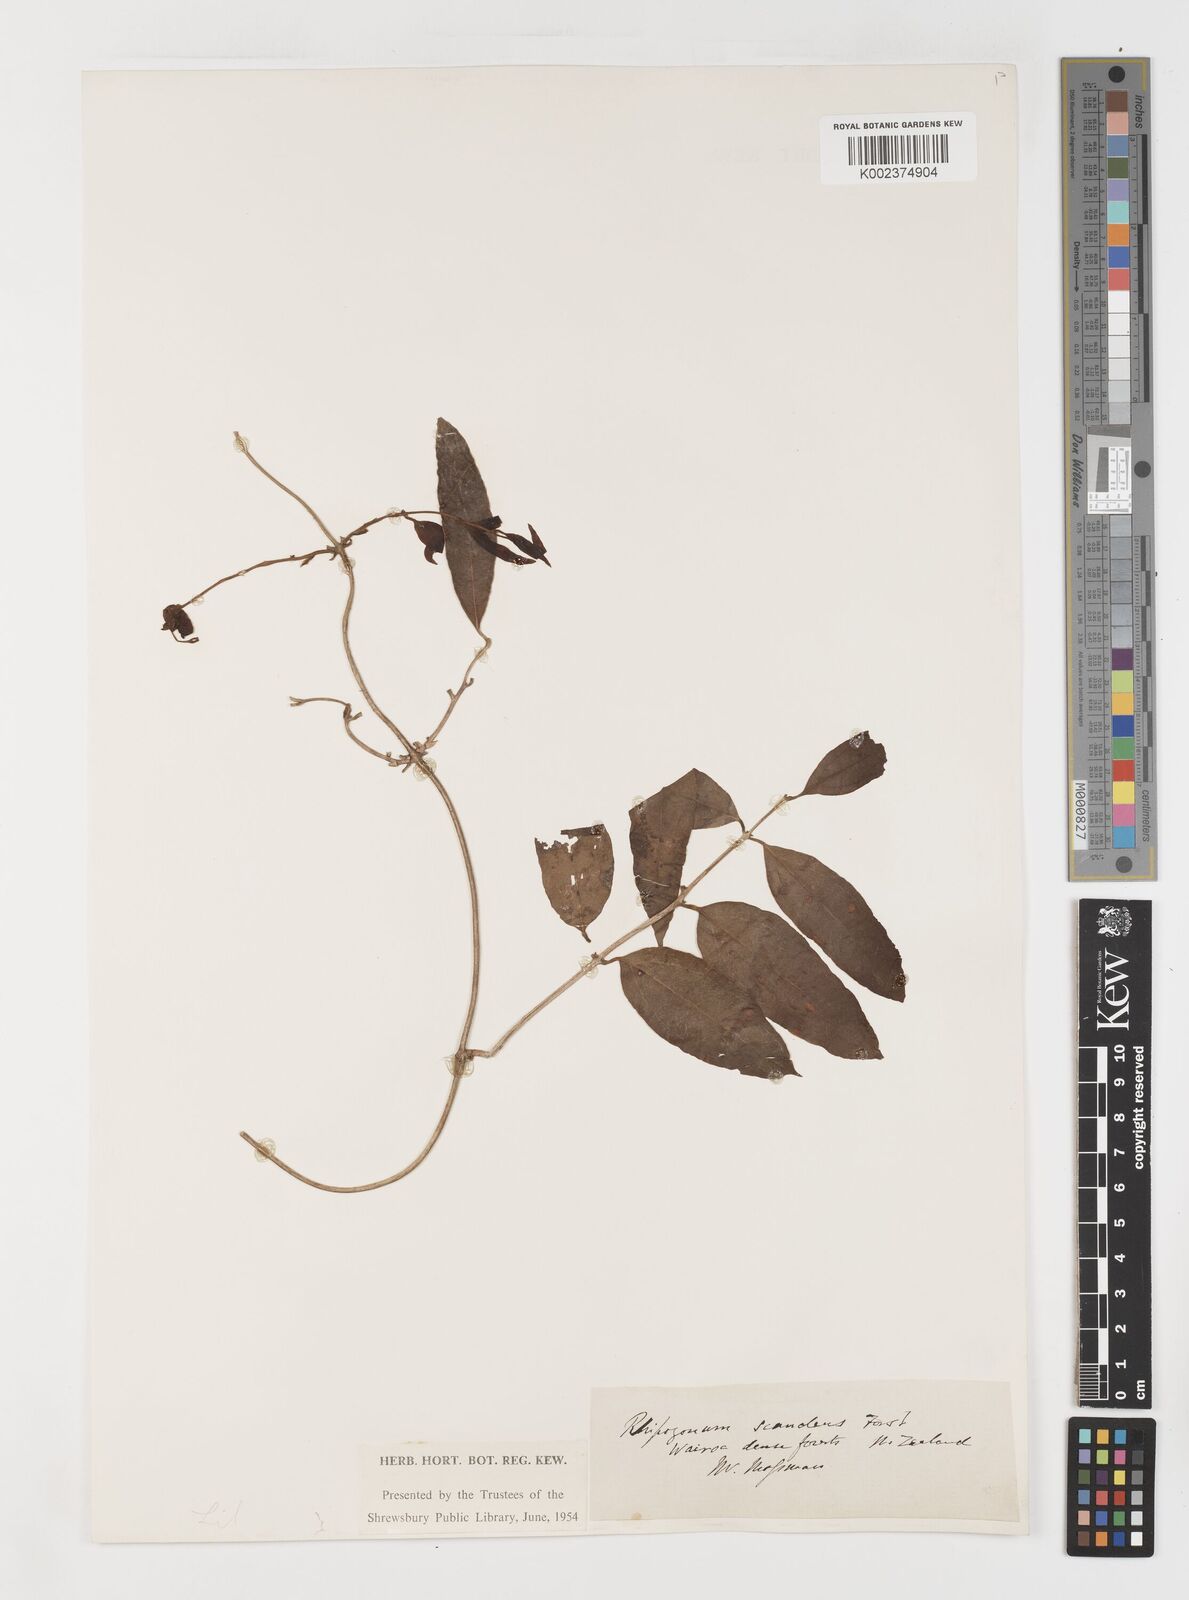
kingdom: Plantae
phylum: Tracheophyta
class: Liliopsida
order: Liliales
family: Ripogonaceae
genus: Ripogonum
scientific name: Ripogonum scandens
